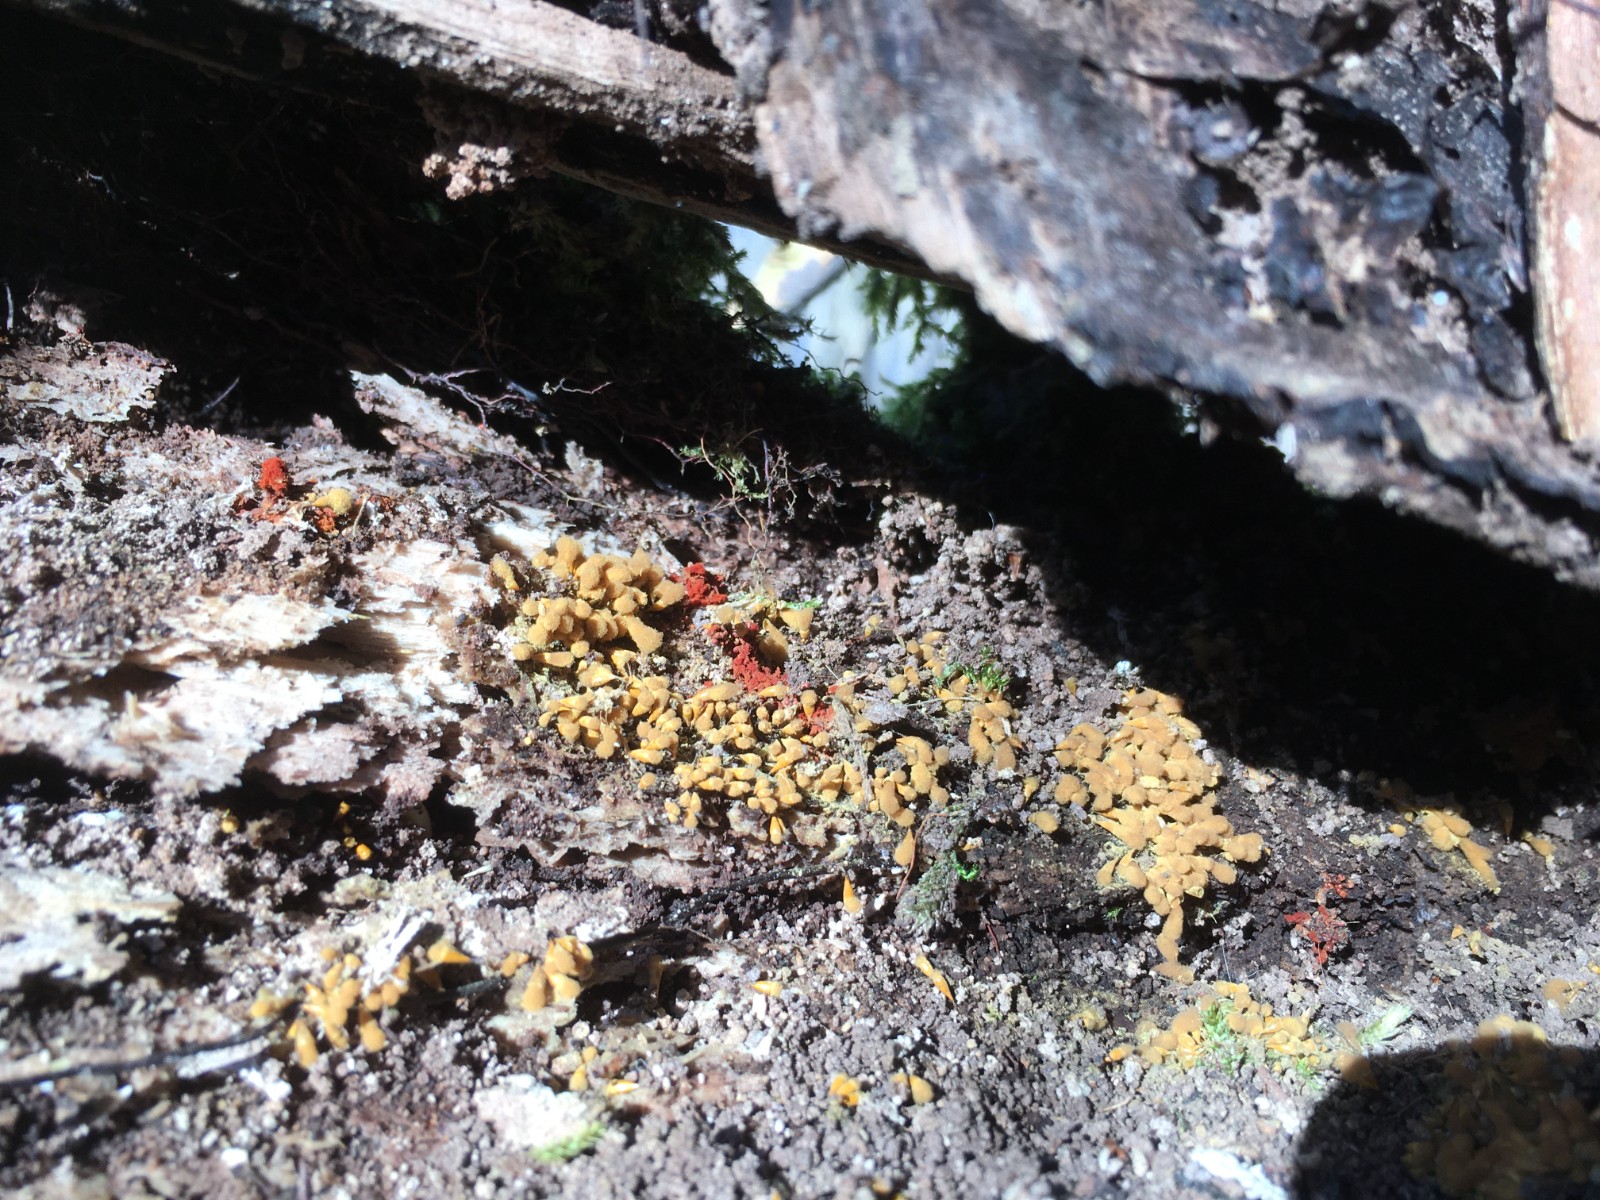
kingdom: Protozoa
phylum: Mycetozoa
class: Myxomycetes
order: Trichiales
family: Trichiaceae
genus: Metatrichia
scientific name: Metatrichia vesparia
